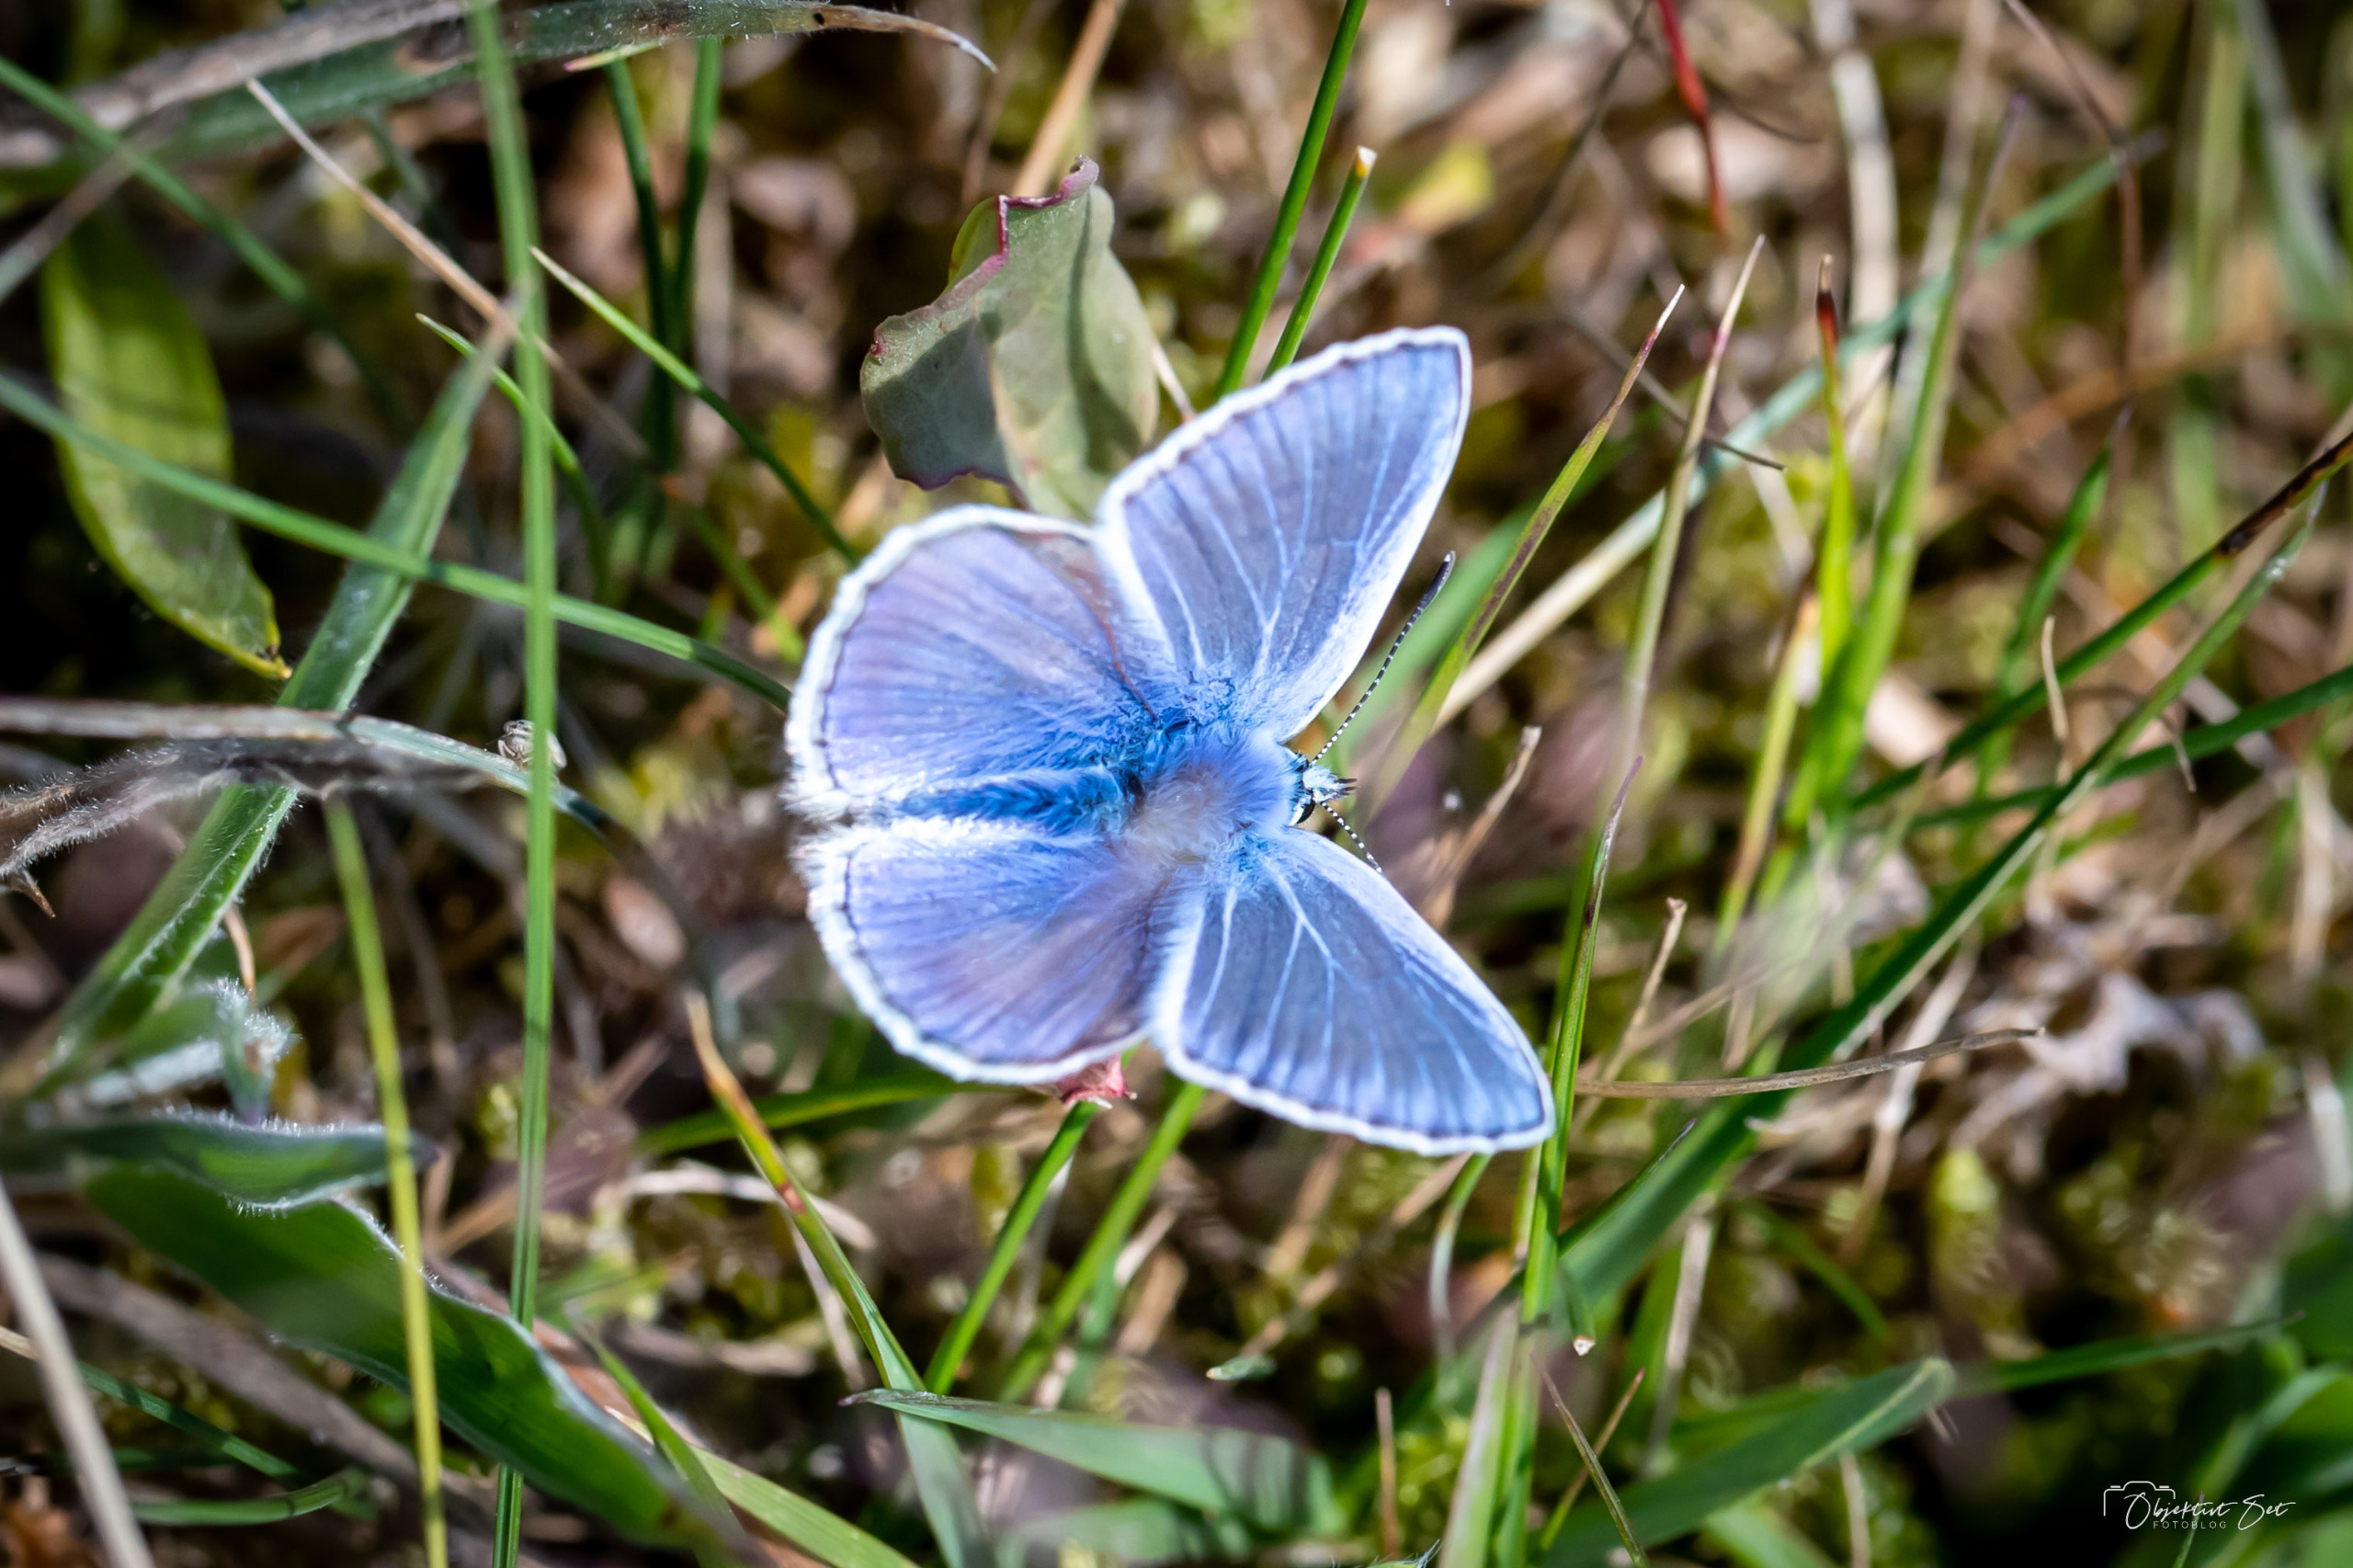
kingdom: Animalia
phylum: Arthropoda
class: Insecta
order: Lepidoptera
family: Lycaenidae
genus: Polyommatus
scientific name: Polyommatus icarus
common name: Almindelig blåfugl
